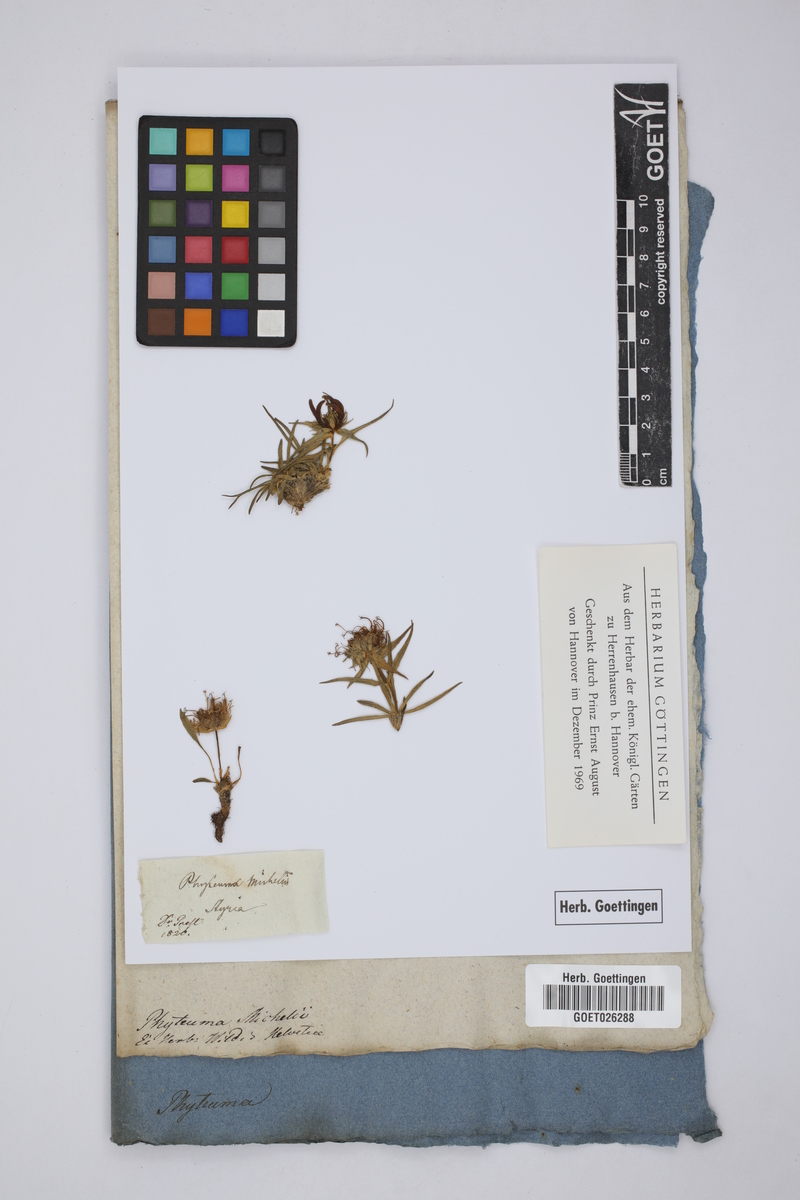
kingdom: Plantae
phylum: Tracheophyta
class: Magnoliopsida
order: Asterales
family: Campanulaceae
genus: Phyteuma
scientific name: Phyteuma michelii
